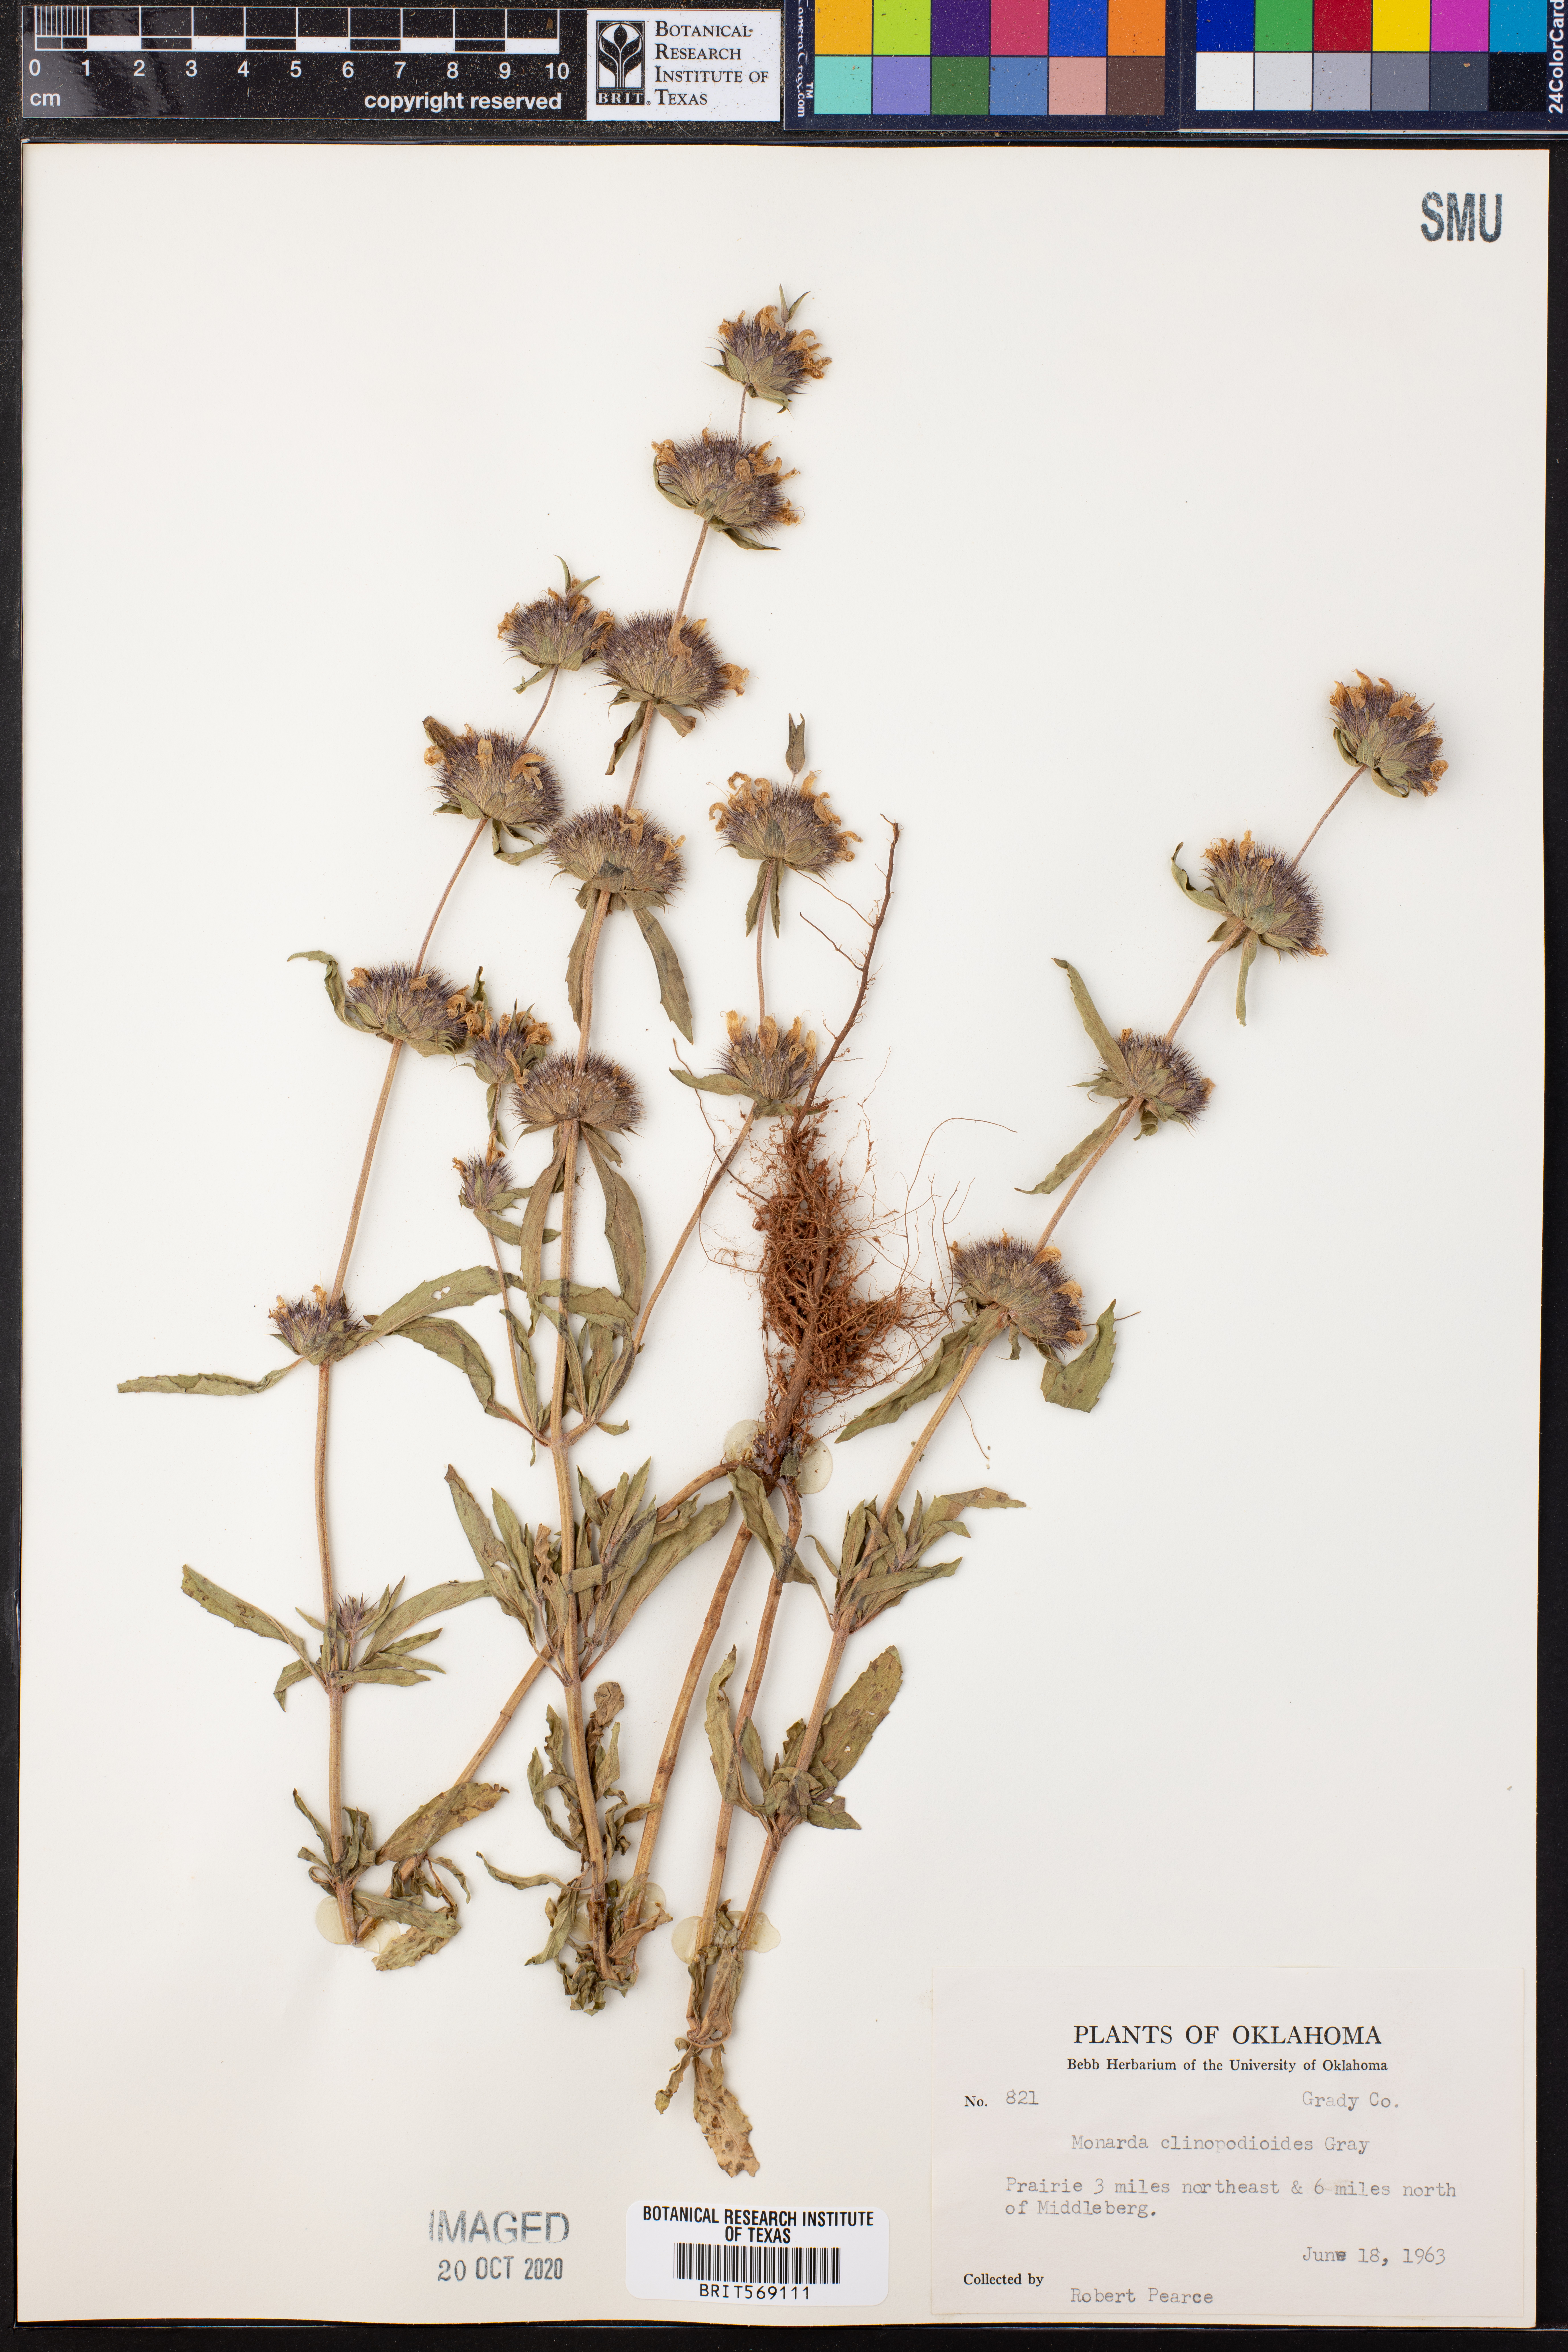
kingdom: Plantae
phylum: Tracheophyta
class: Magnoliopsida
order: Lamiales
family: Lamiaceae
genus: Monarda
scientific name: Monarda clinopodioides
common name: Basil beebalm
